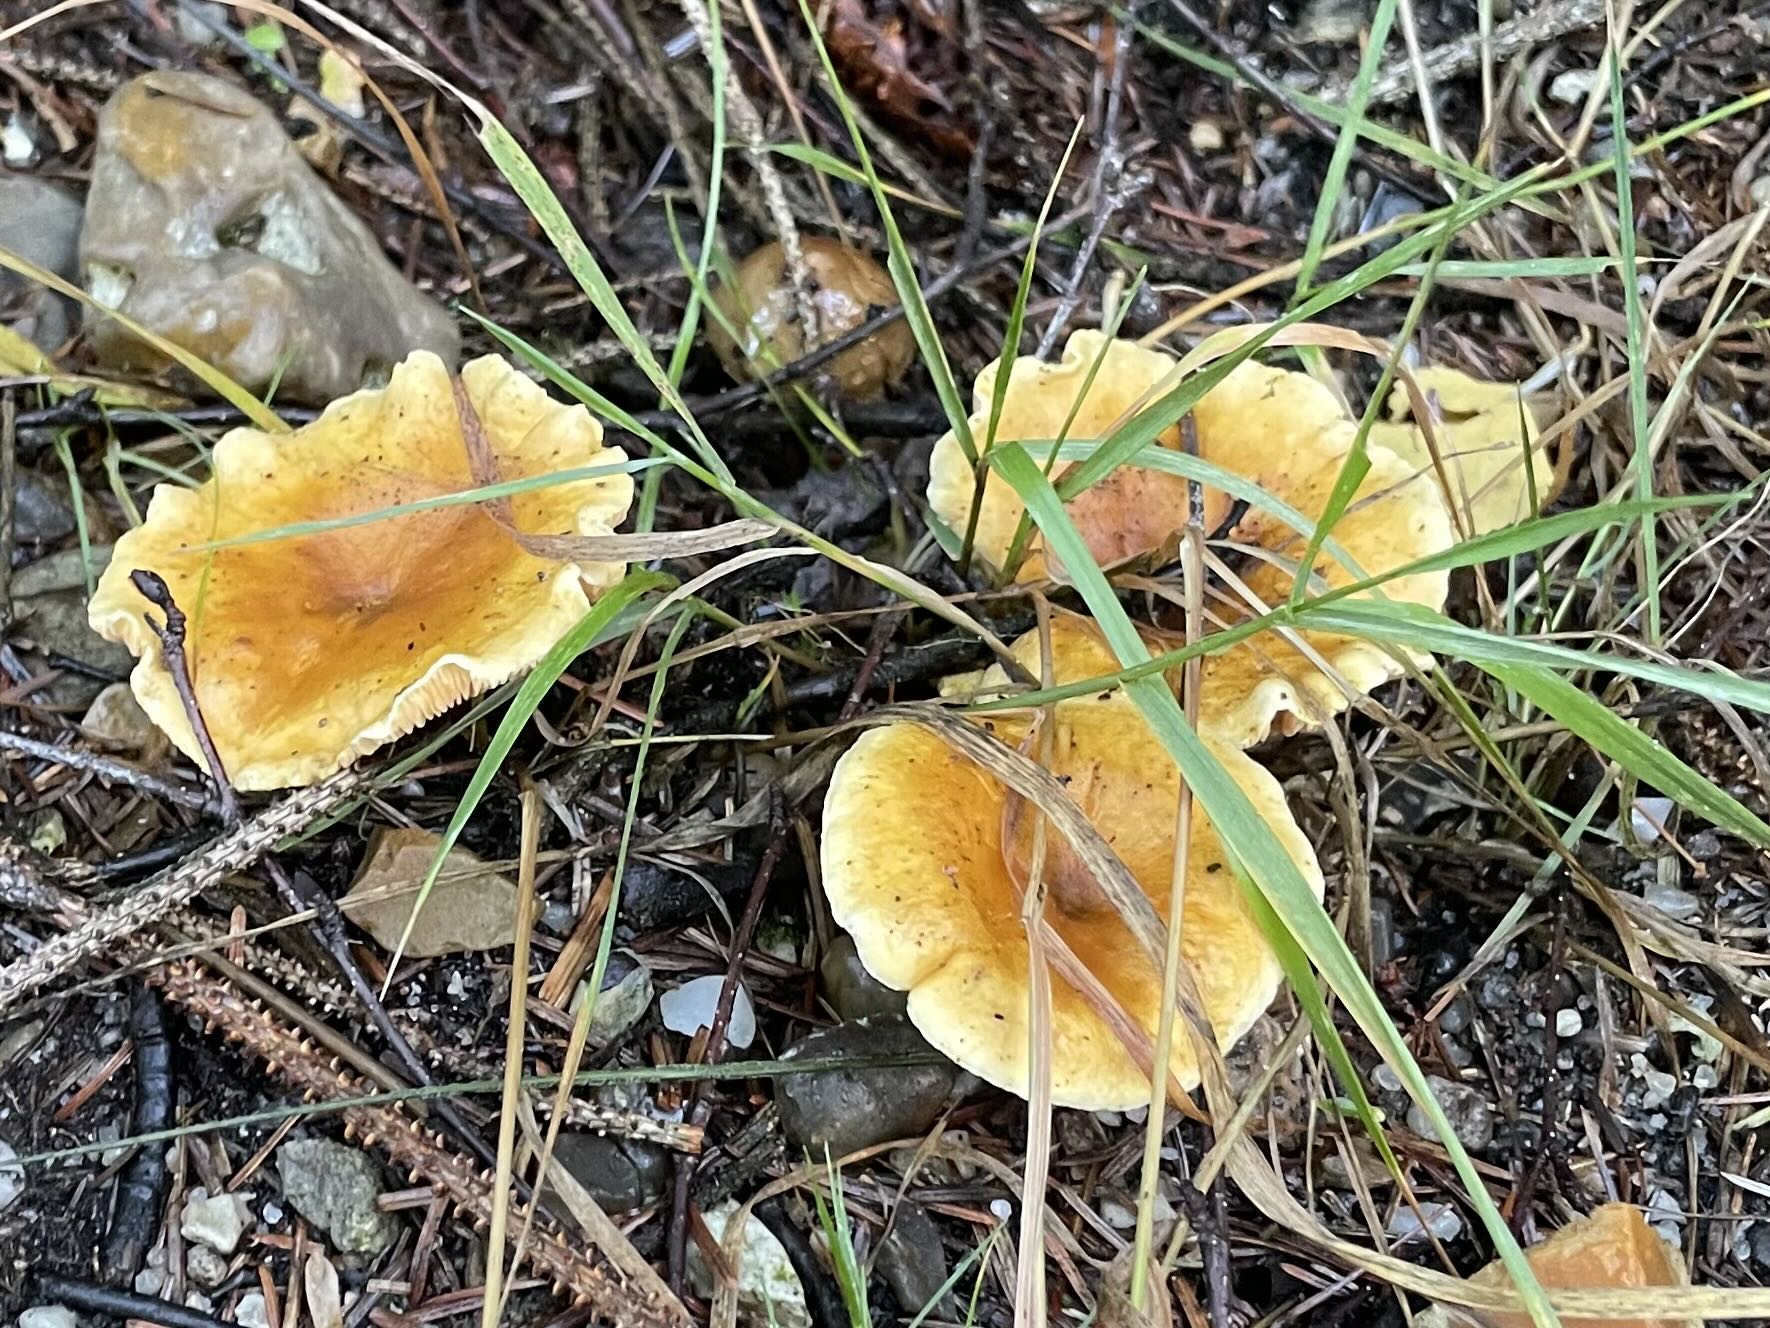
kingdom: Fungi
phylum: Basidiomycota
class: Agaricomycetes
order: Boletales
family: Hygrophoropsidaceae
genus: Hygrophoropsis
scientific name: Hygrophoropsis aurantiaca
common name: almindelig orangekantarel
